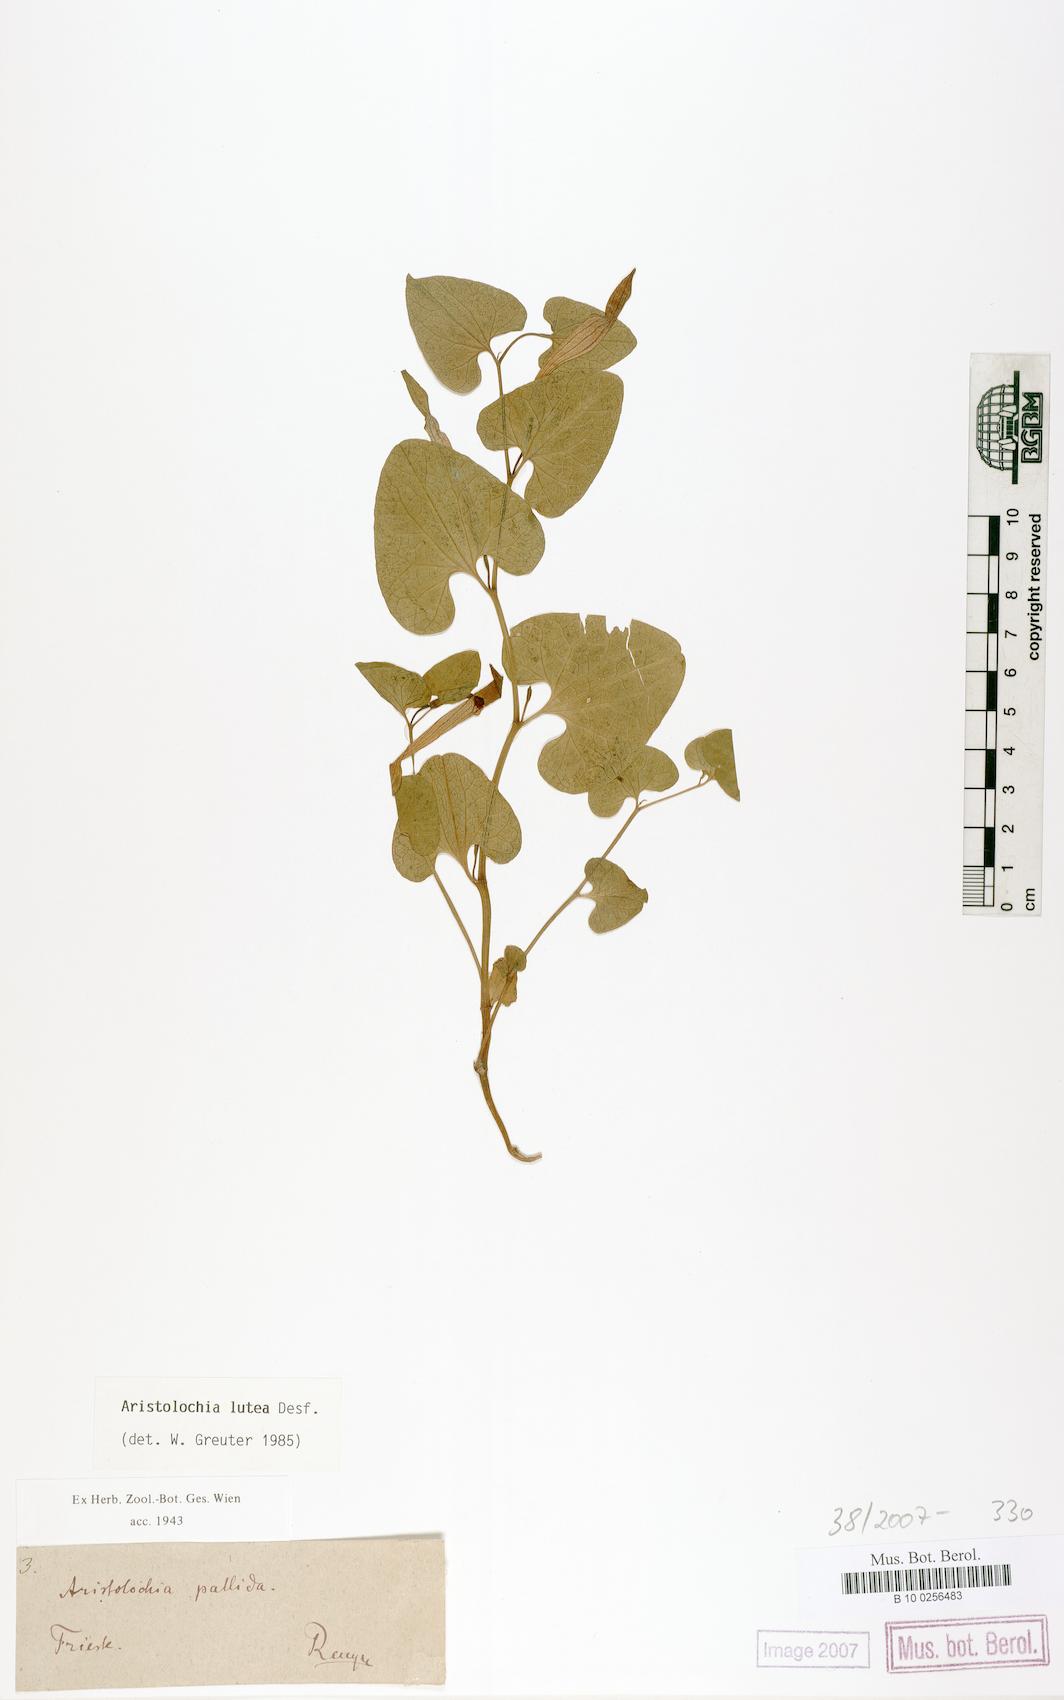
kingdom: Plantae
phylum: Tracheophyta
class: Magnoliopsida
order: Piperales
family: Aristolochiaceae
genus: Aristolochia
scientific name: Aristolochia lutea
